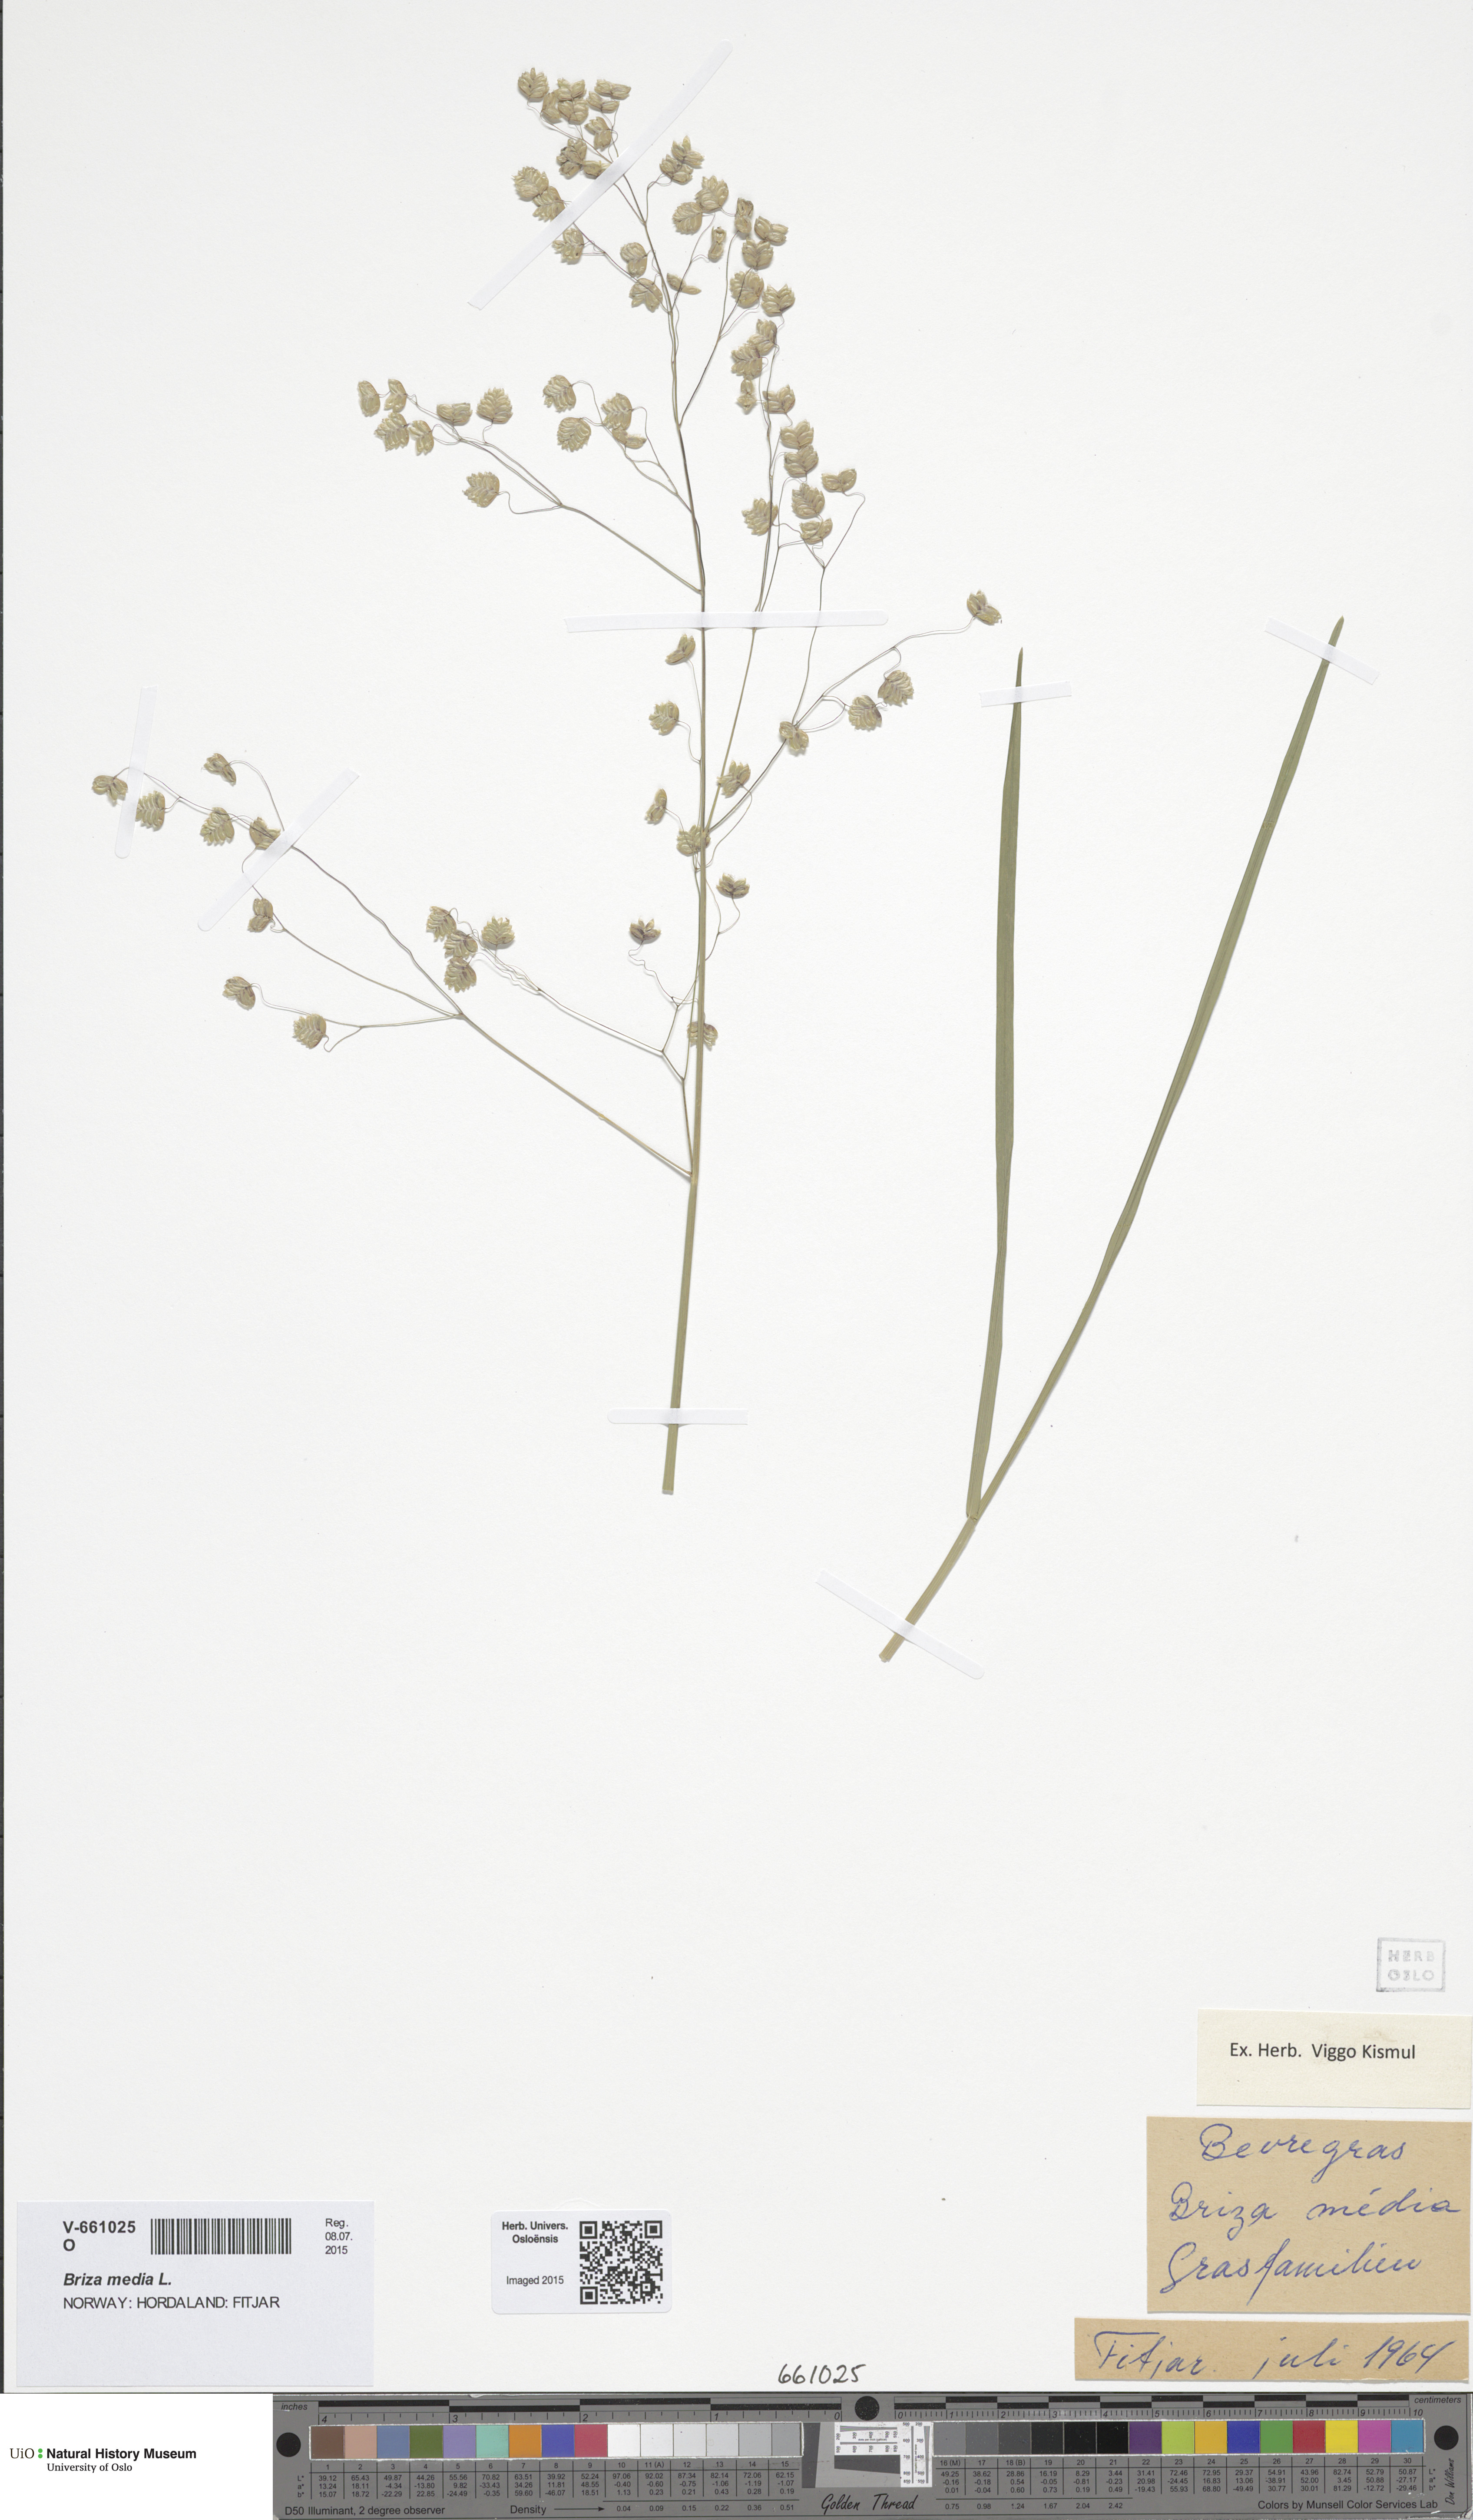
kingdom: Plantae
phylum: Tracheophyta
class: Liliopsida
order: Poales
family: Poaceae
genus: Briza
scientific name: Briza media
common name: Quaking grass
